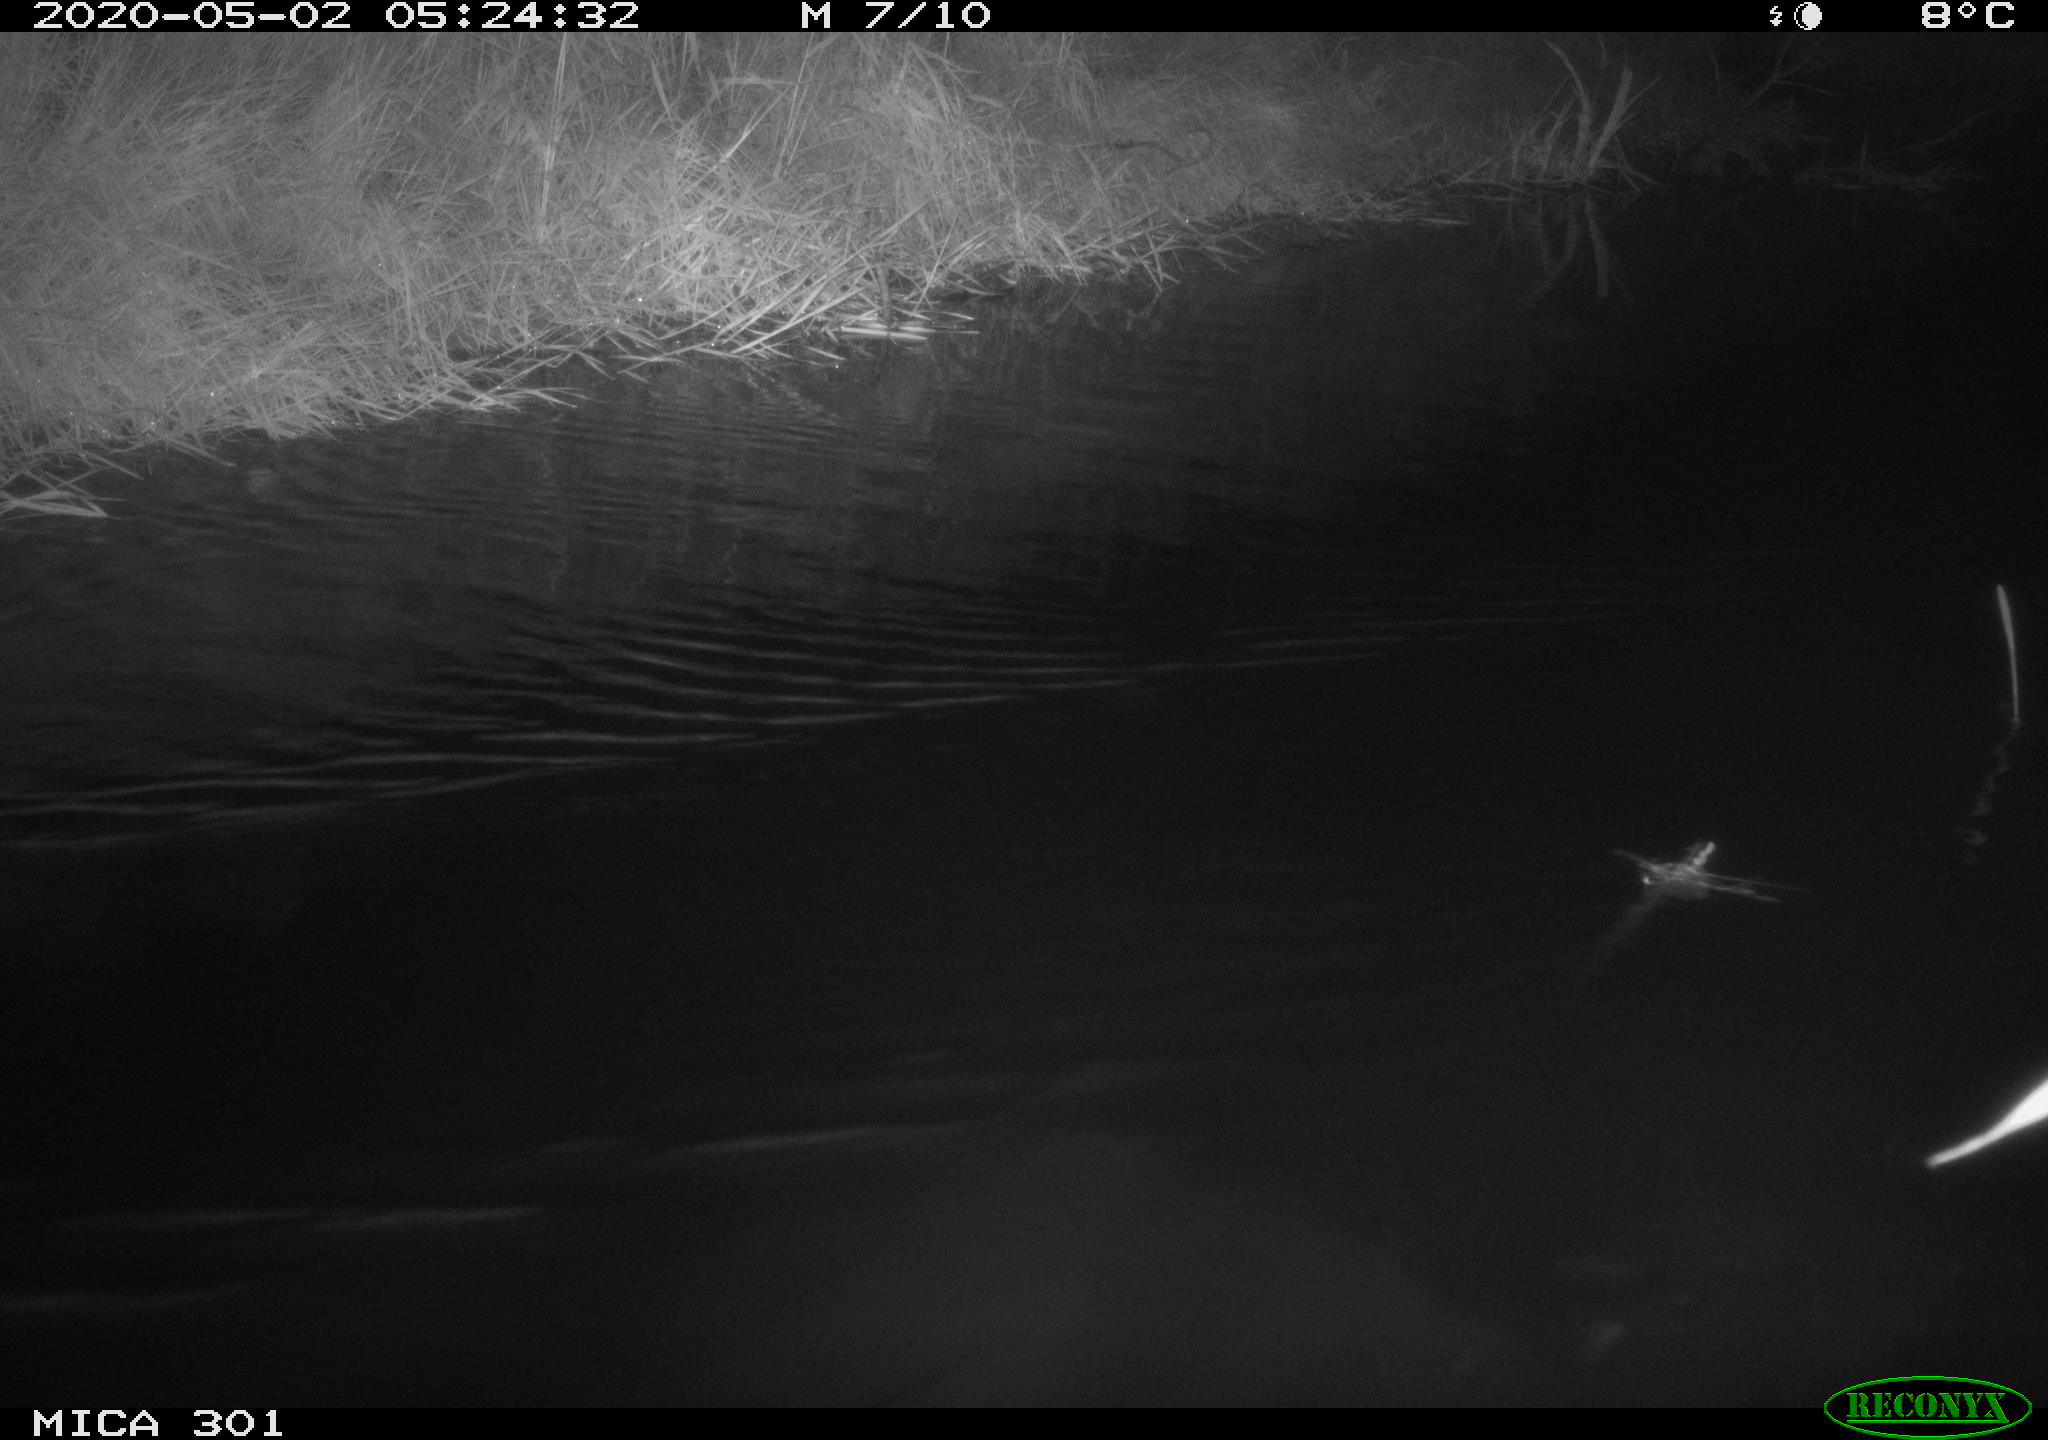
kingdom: Animalia
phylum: Chordata
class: Aves
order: Anseriformes
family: Anatidae
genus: Mareca
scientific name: Mareca strepera
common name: Gadwall
